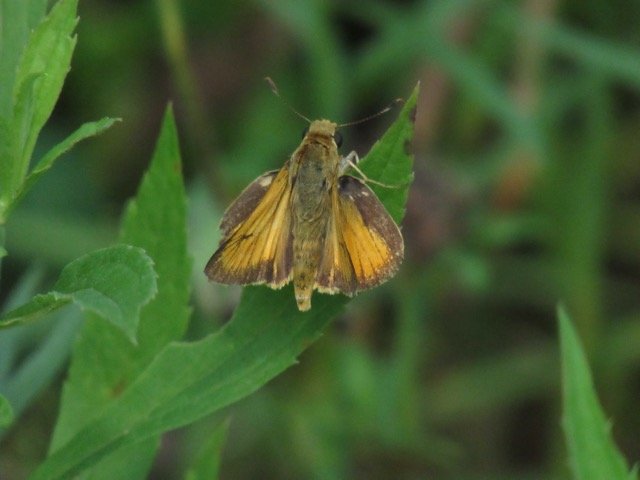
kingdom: Animalia
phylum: Arthropoda
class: Insecta
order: Lepidoptera
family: Hesperiidae
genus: Atrytone
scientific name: Atrytone delaware
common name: Delaware Skipper
